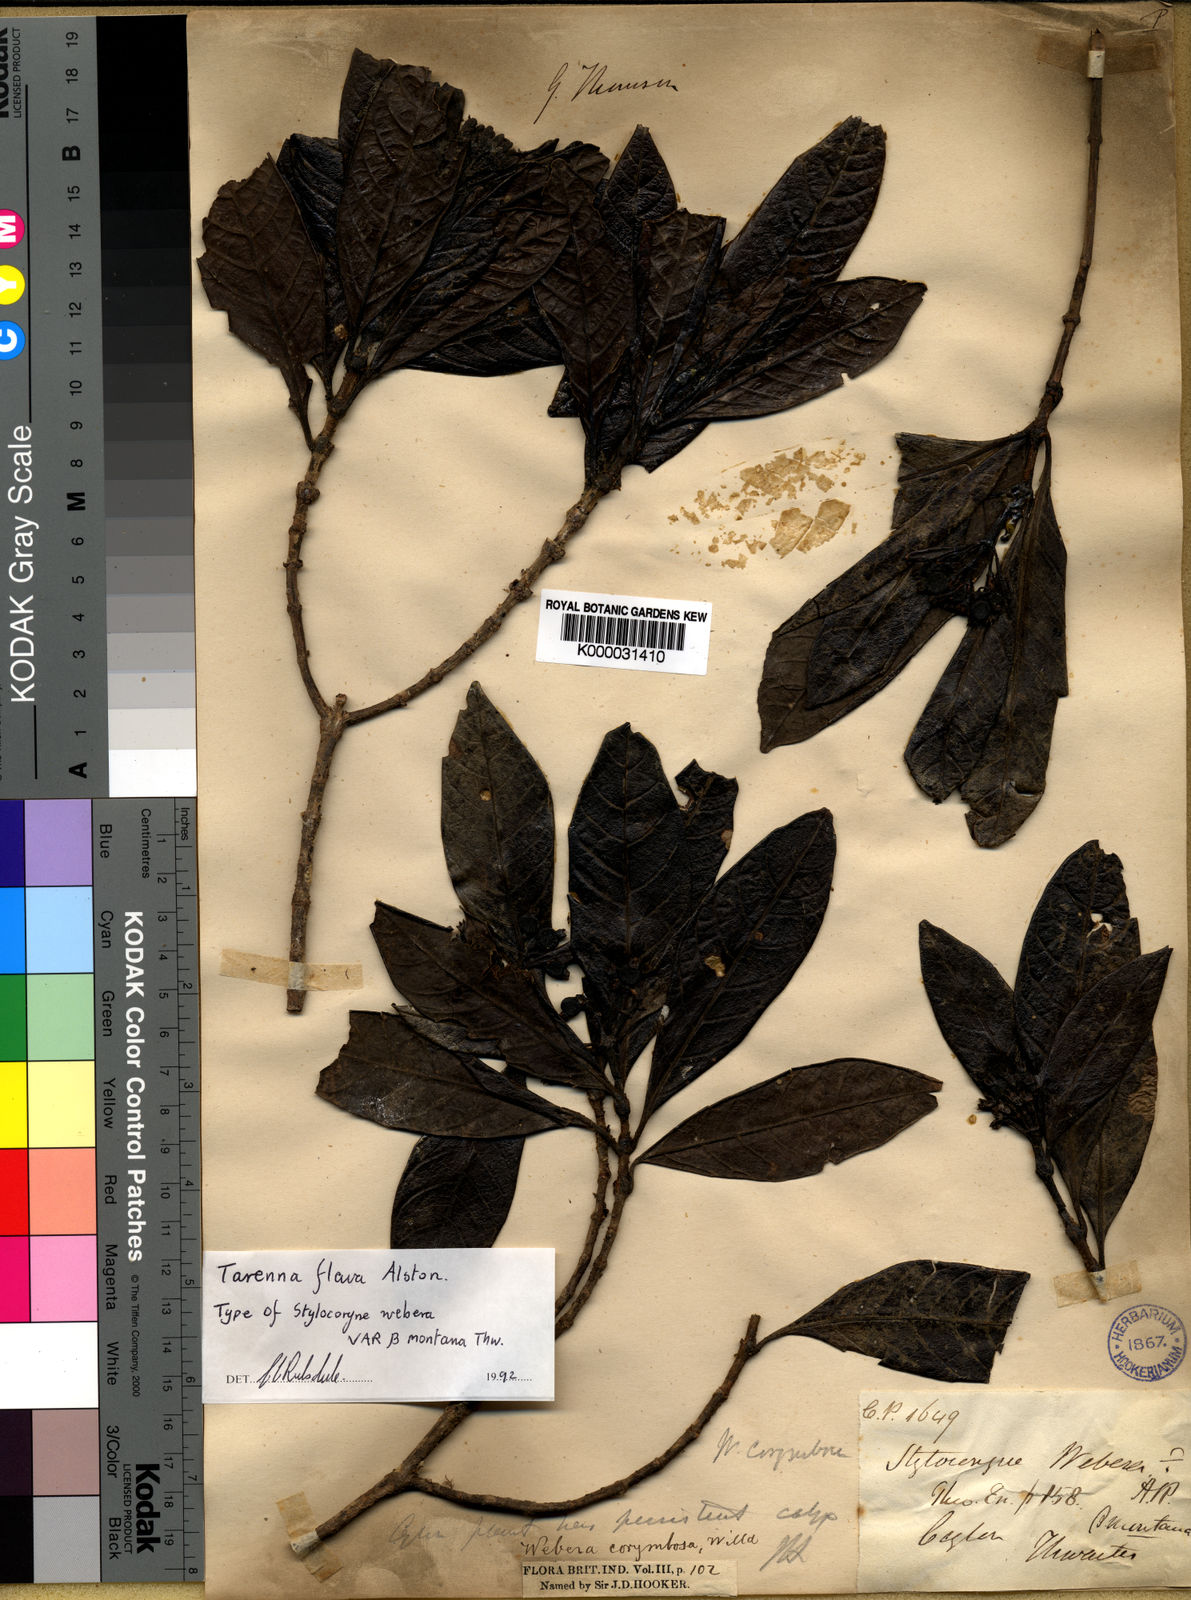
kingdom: Plantae
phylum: Tracheophyta
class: Magnoliopsida
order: Gentianales
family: Rubiaceae
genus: Tarenna
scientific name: Tarenna flava
